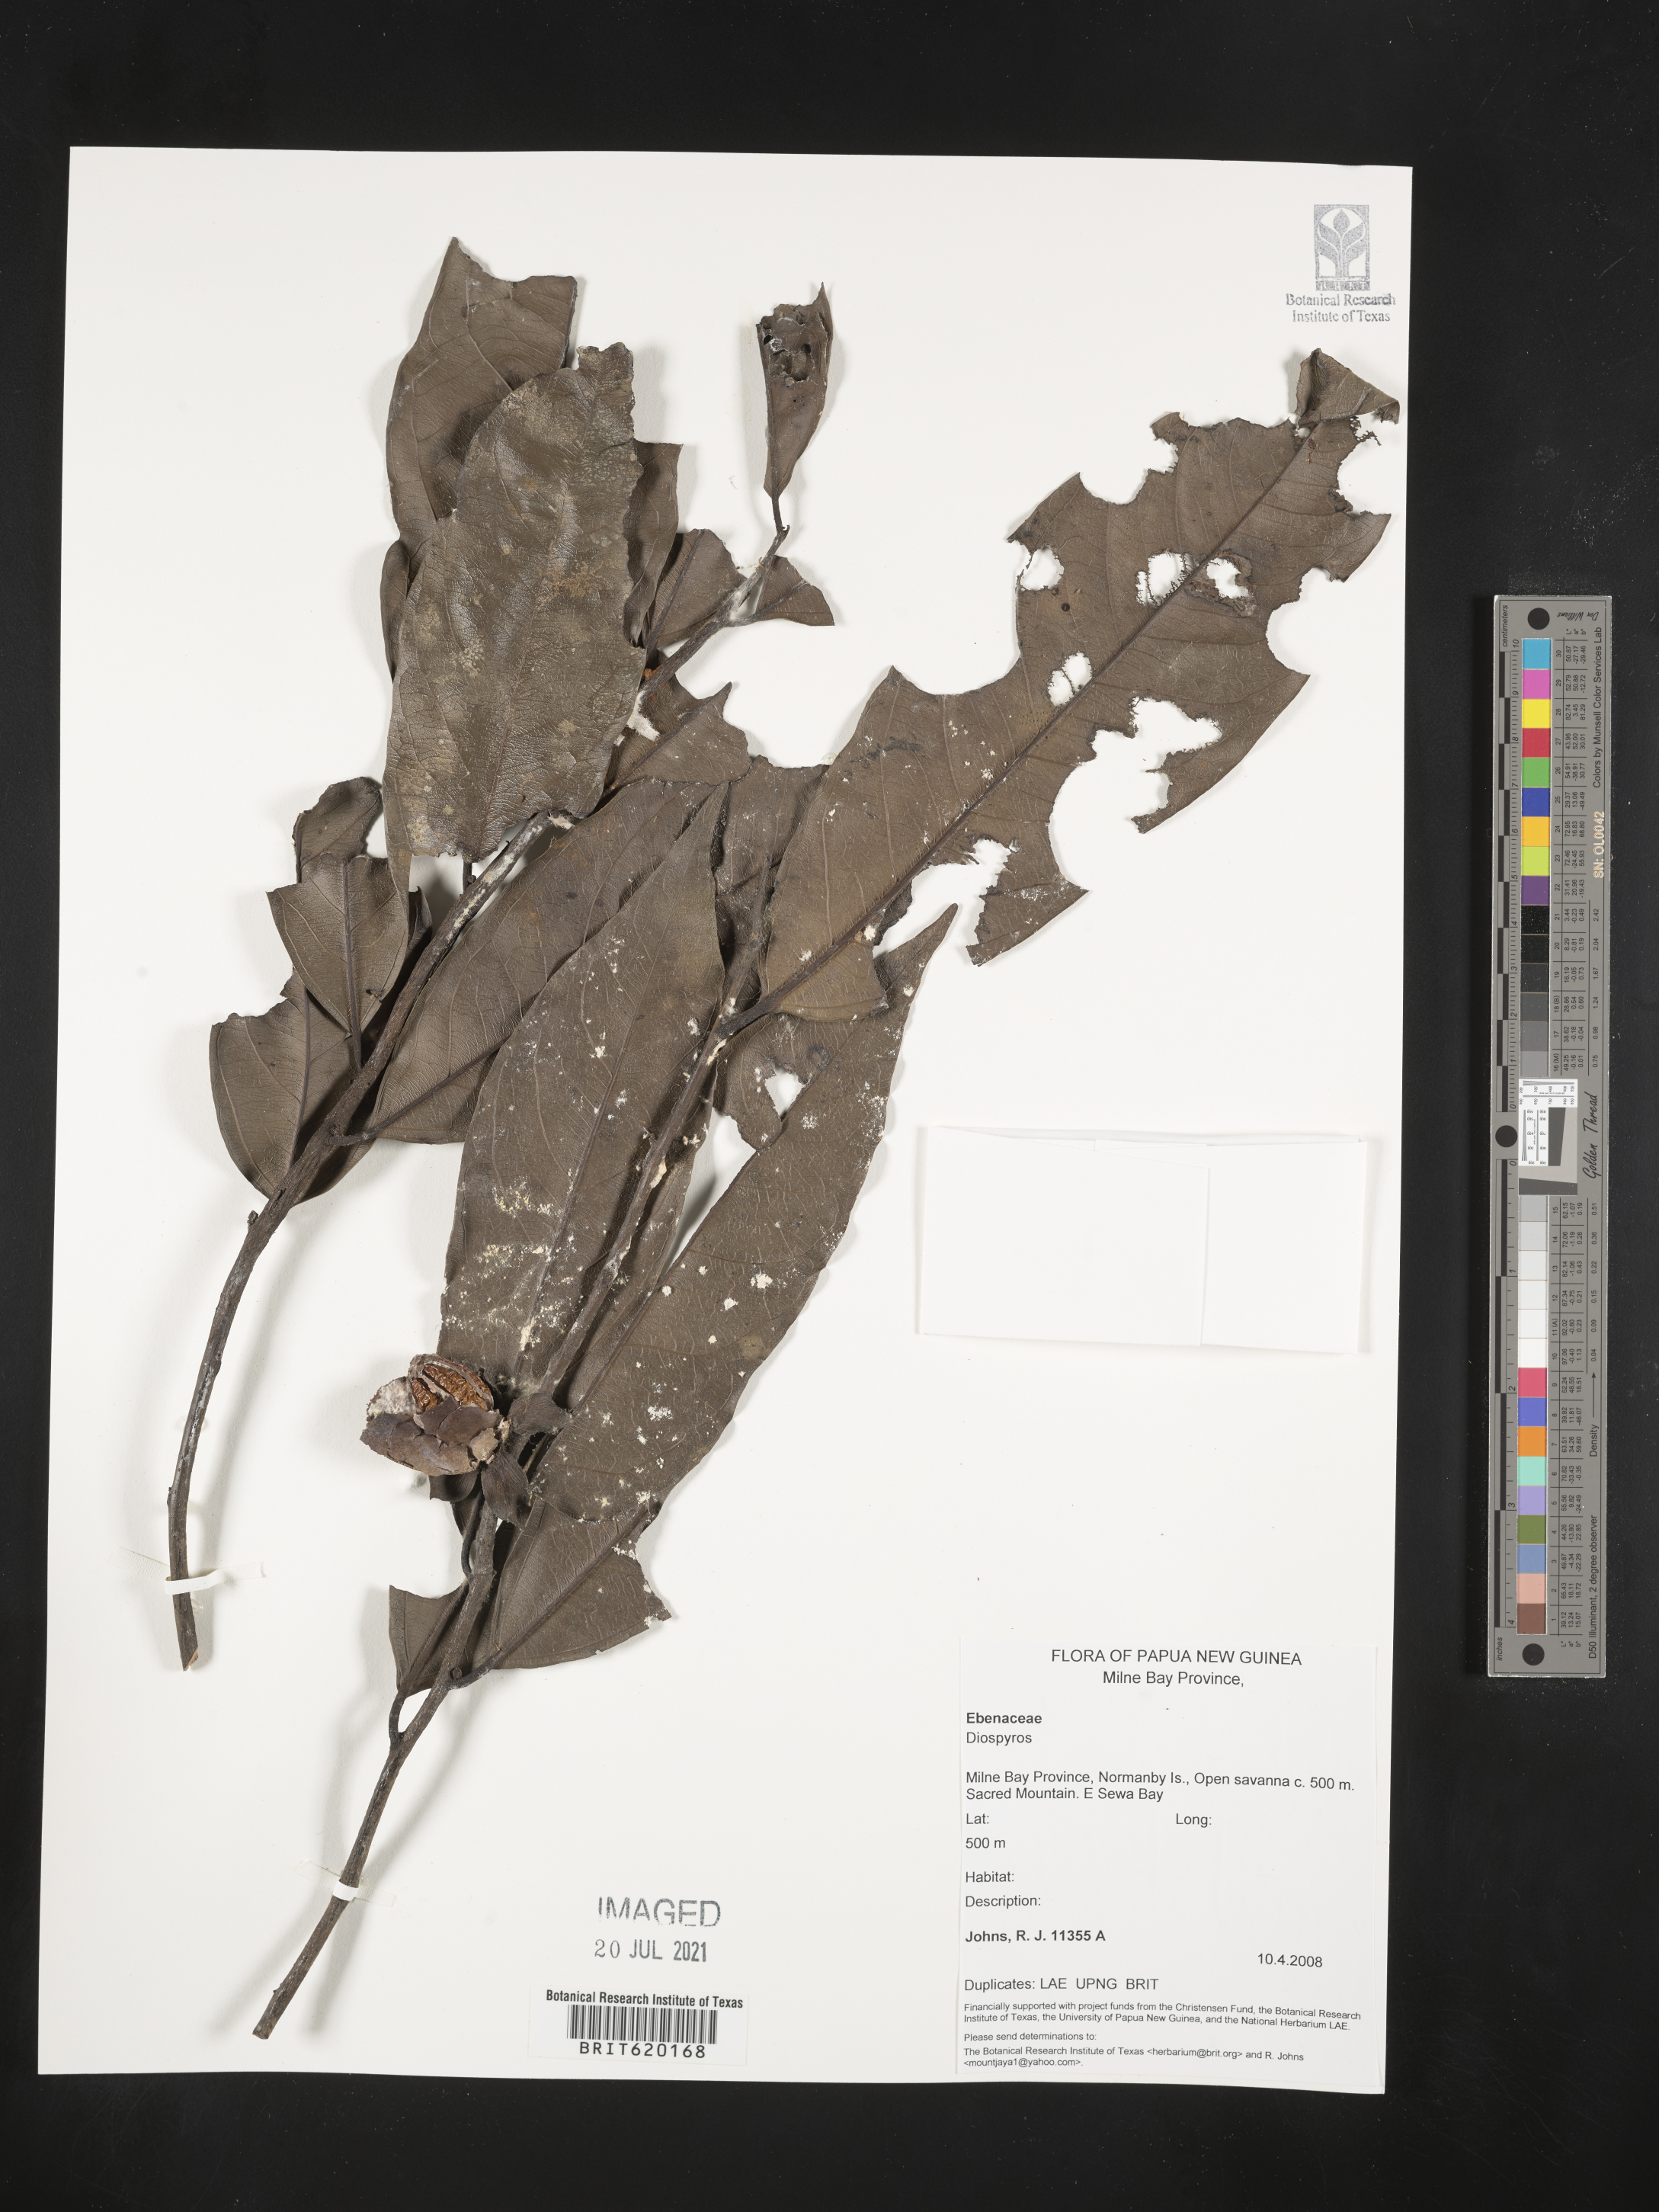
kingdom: Plantae
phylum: Tracheophyta
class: Magnoliopsida
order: Ericales
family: Ebenaceae
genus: Diospyros
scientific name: Diospyros
